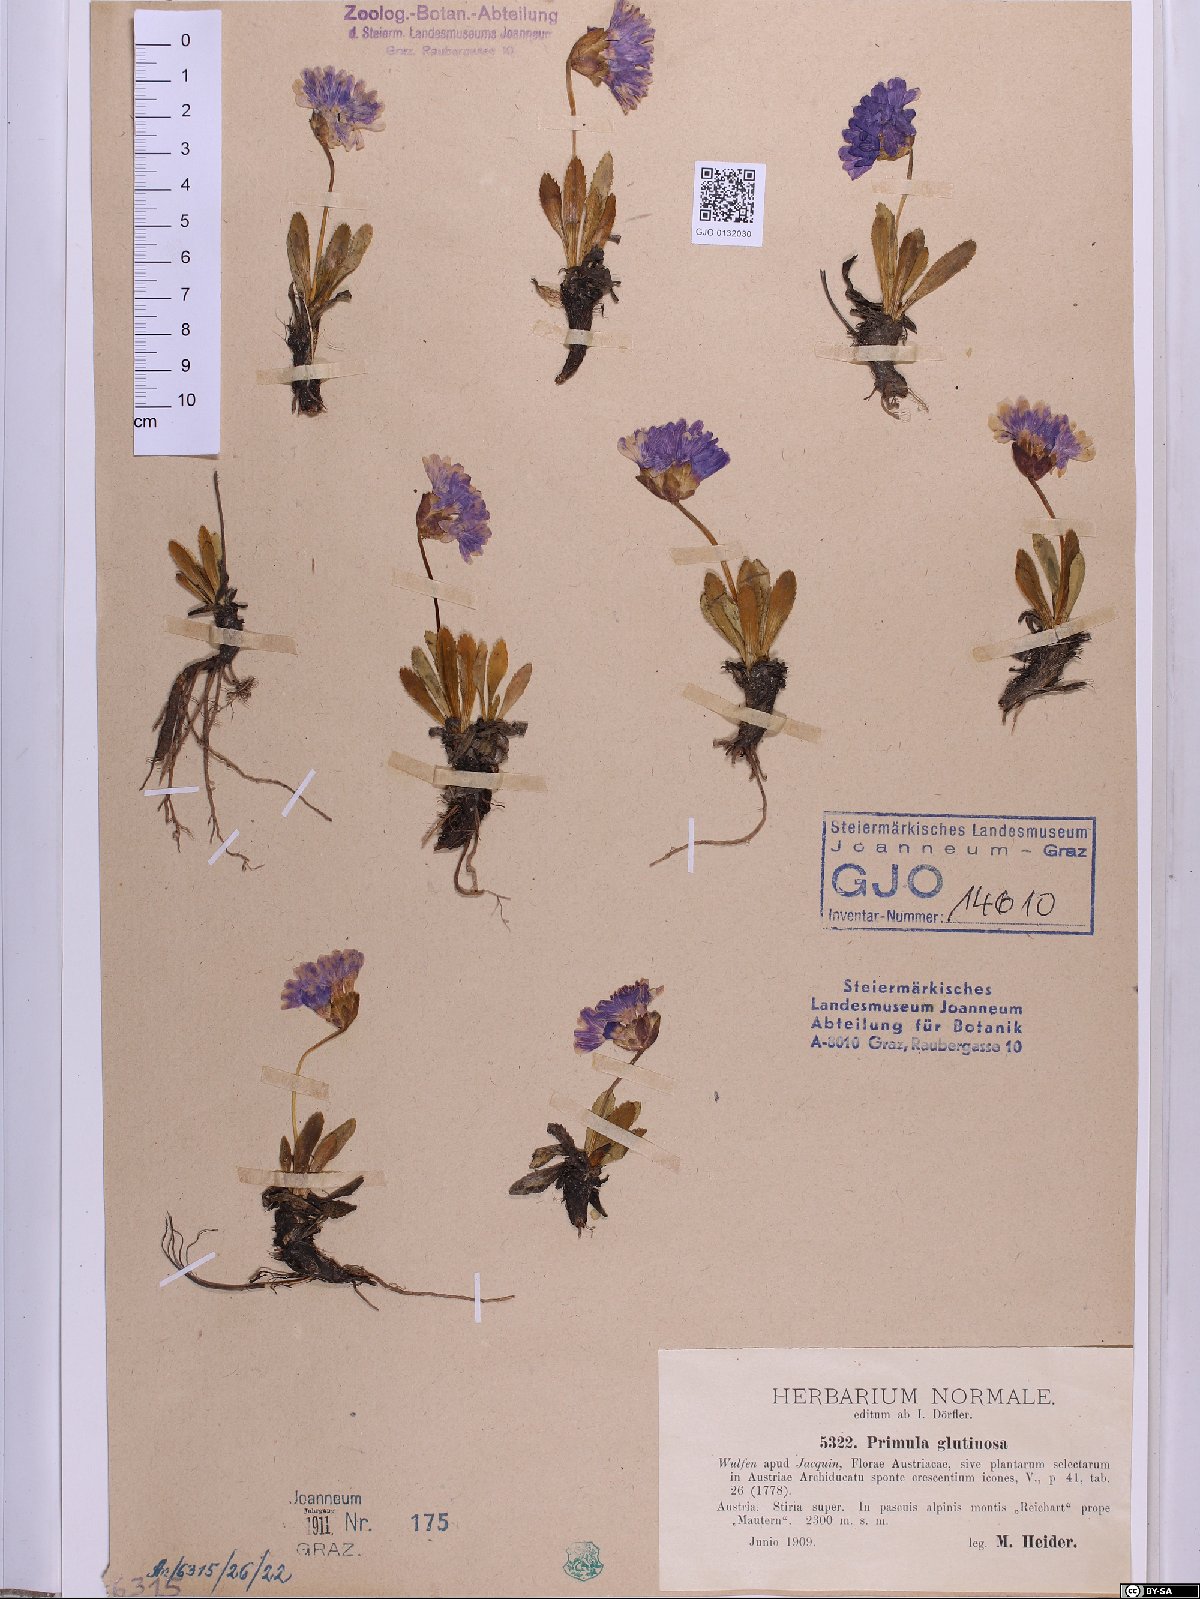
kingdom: Plantae
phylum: Tracheophyta
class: Magnoliopsida
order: Ericales
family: Primulaceae
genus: Primula
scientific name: Primula glutinosa
